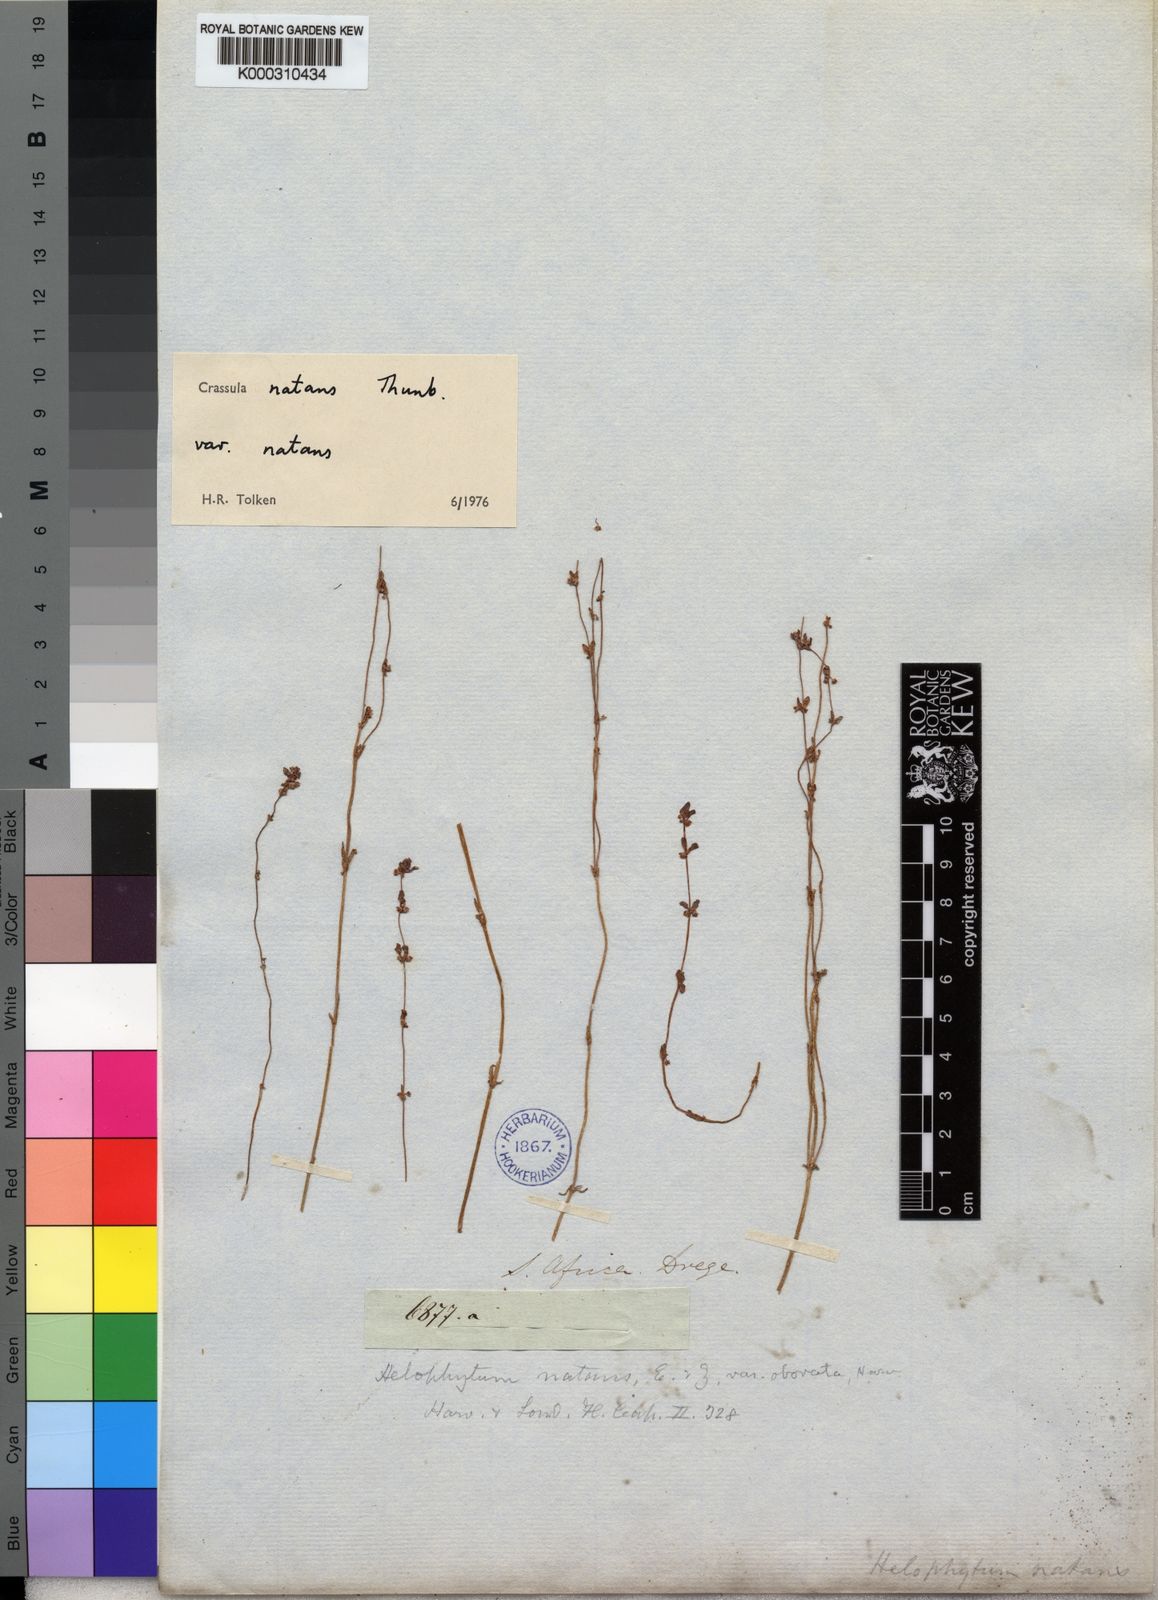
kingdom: Plantae
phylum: Tracheophyta
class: Magnoliopsida
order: Saxifragales
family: Crassulaceae
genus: Crassula
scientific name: Crassula natans
